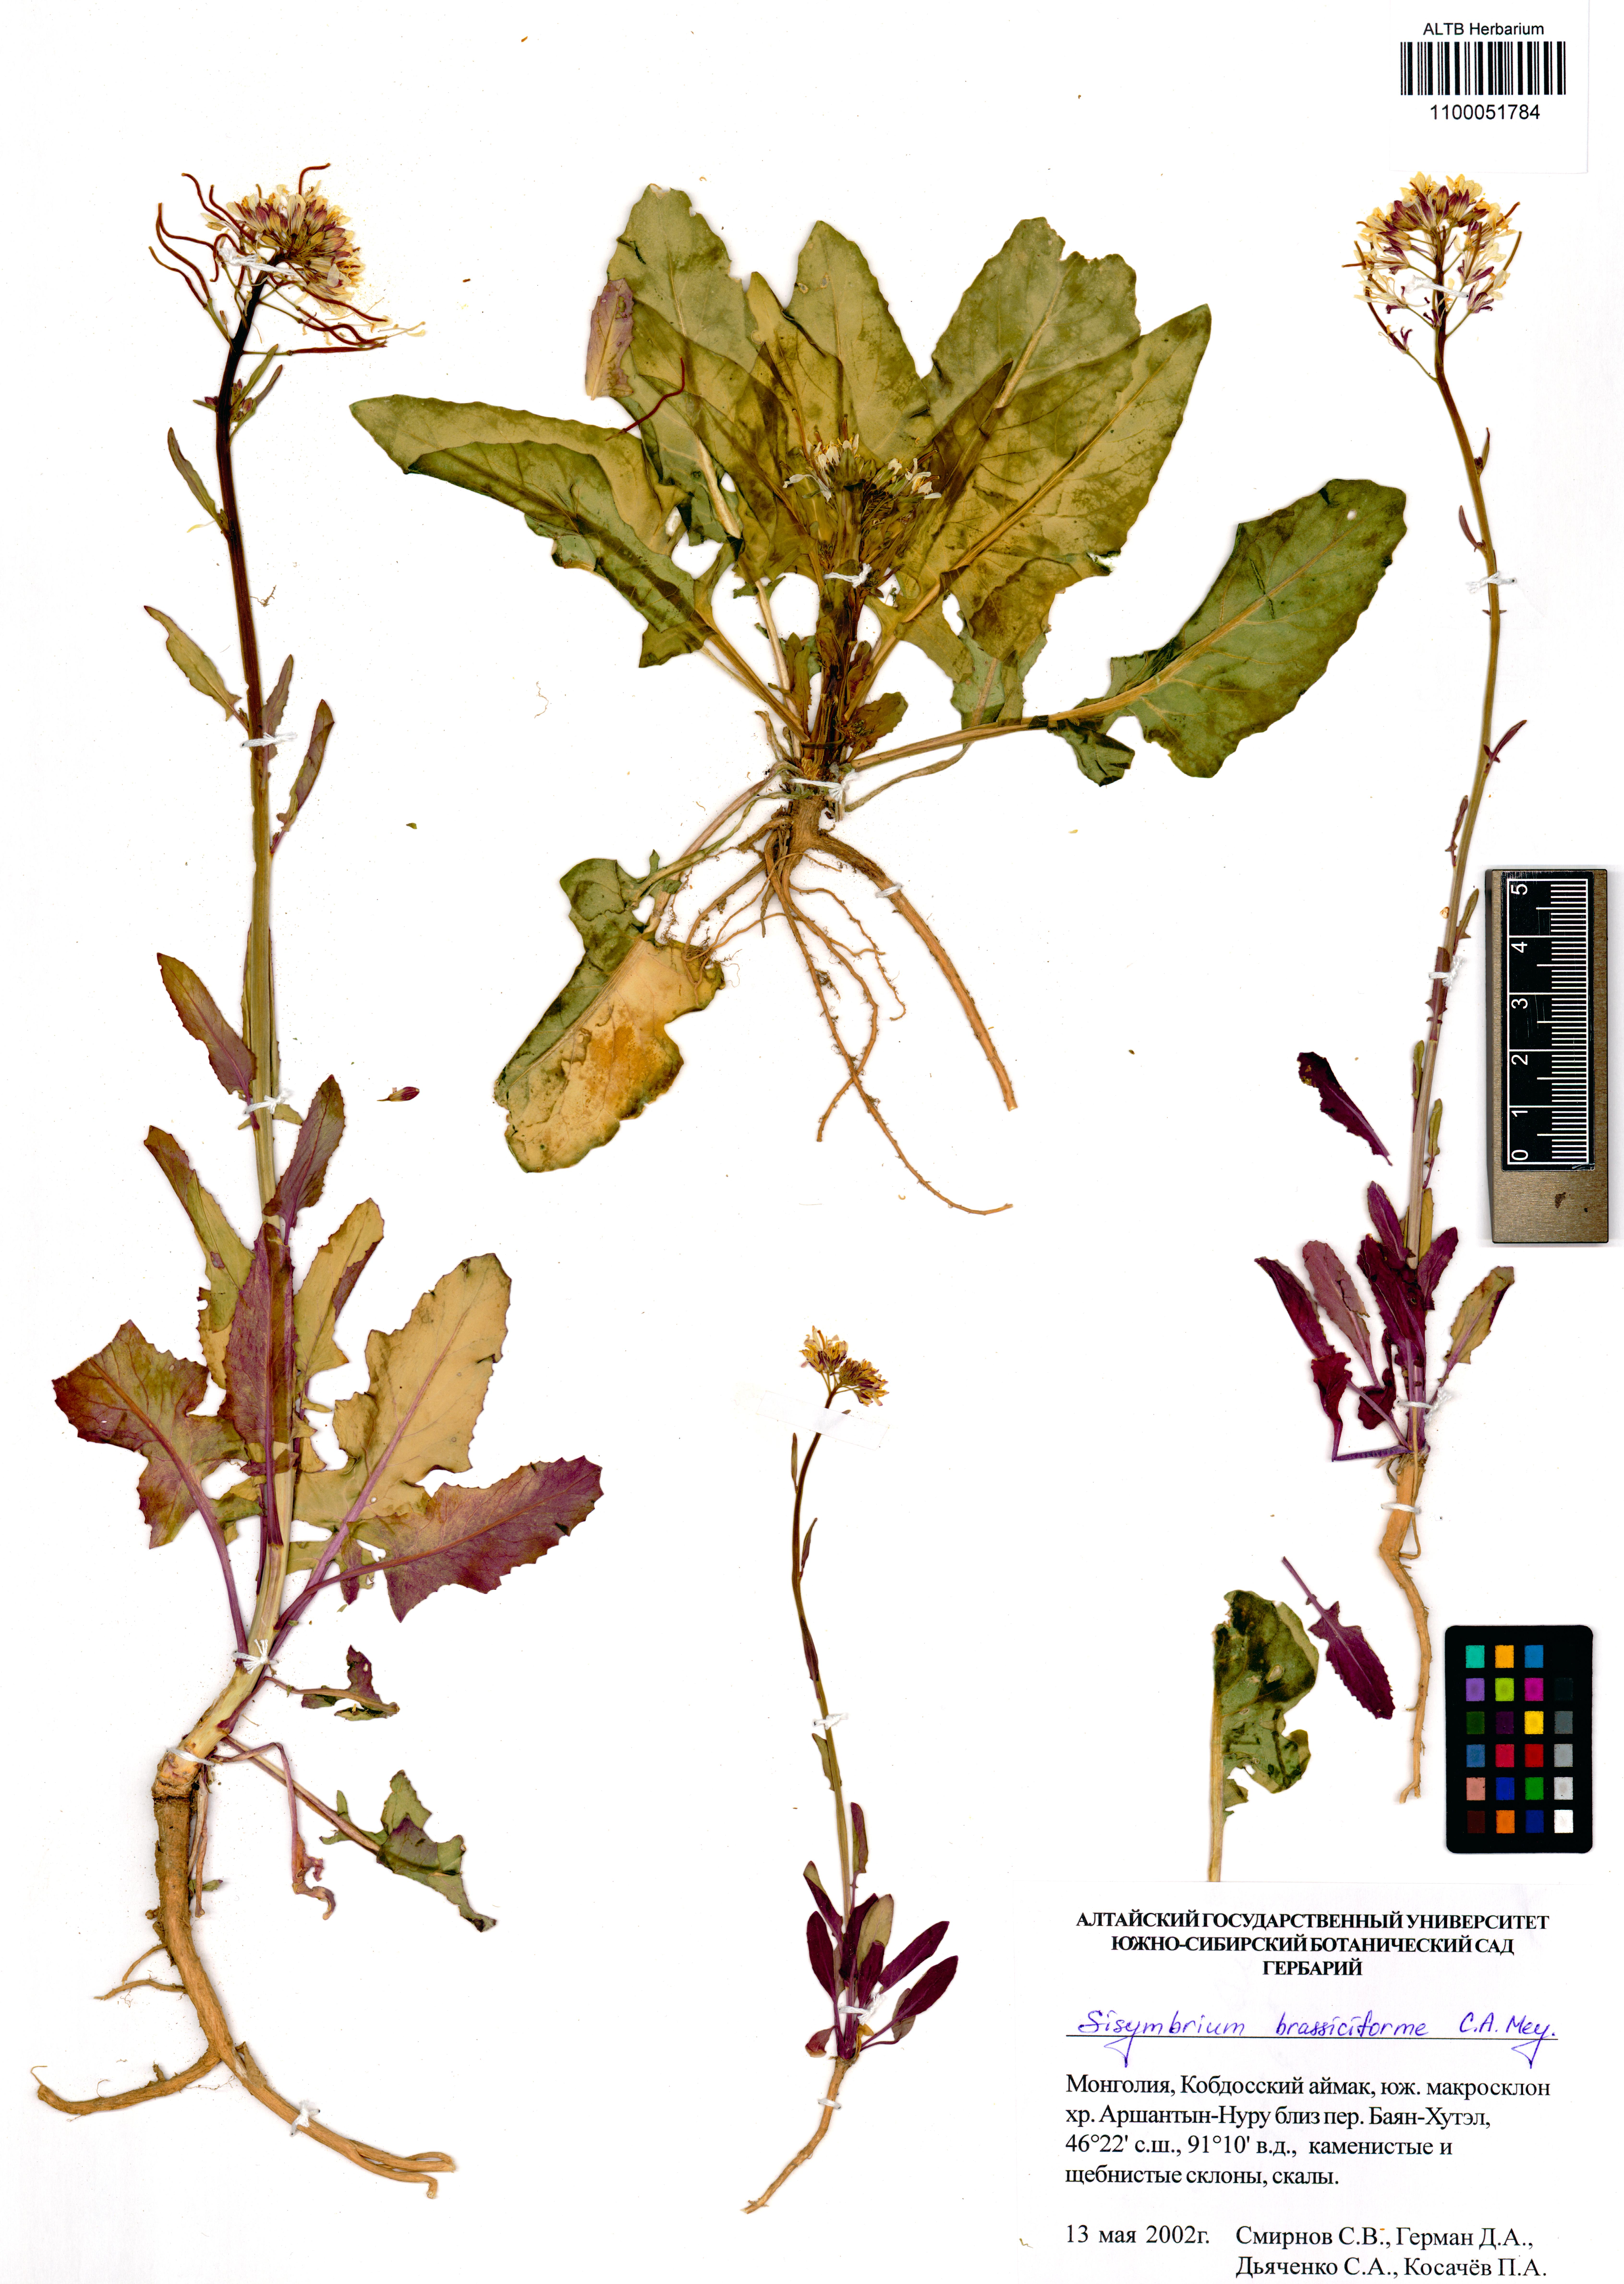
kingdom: Plantae
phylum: Tracheophyta
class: Magnoliopsida
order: Brassicales
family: Brassicaceae
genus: Sisymbrium
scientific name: Sisymbrium brassiciforme
